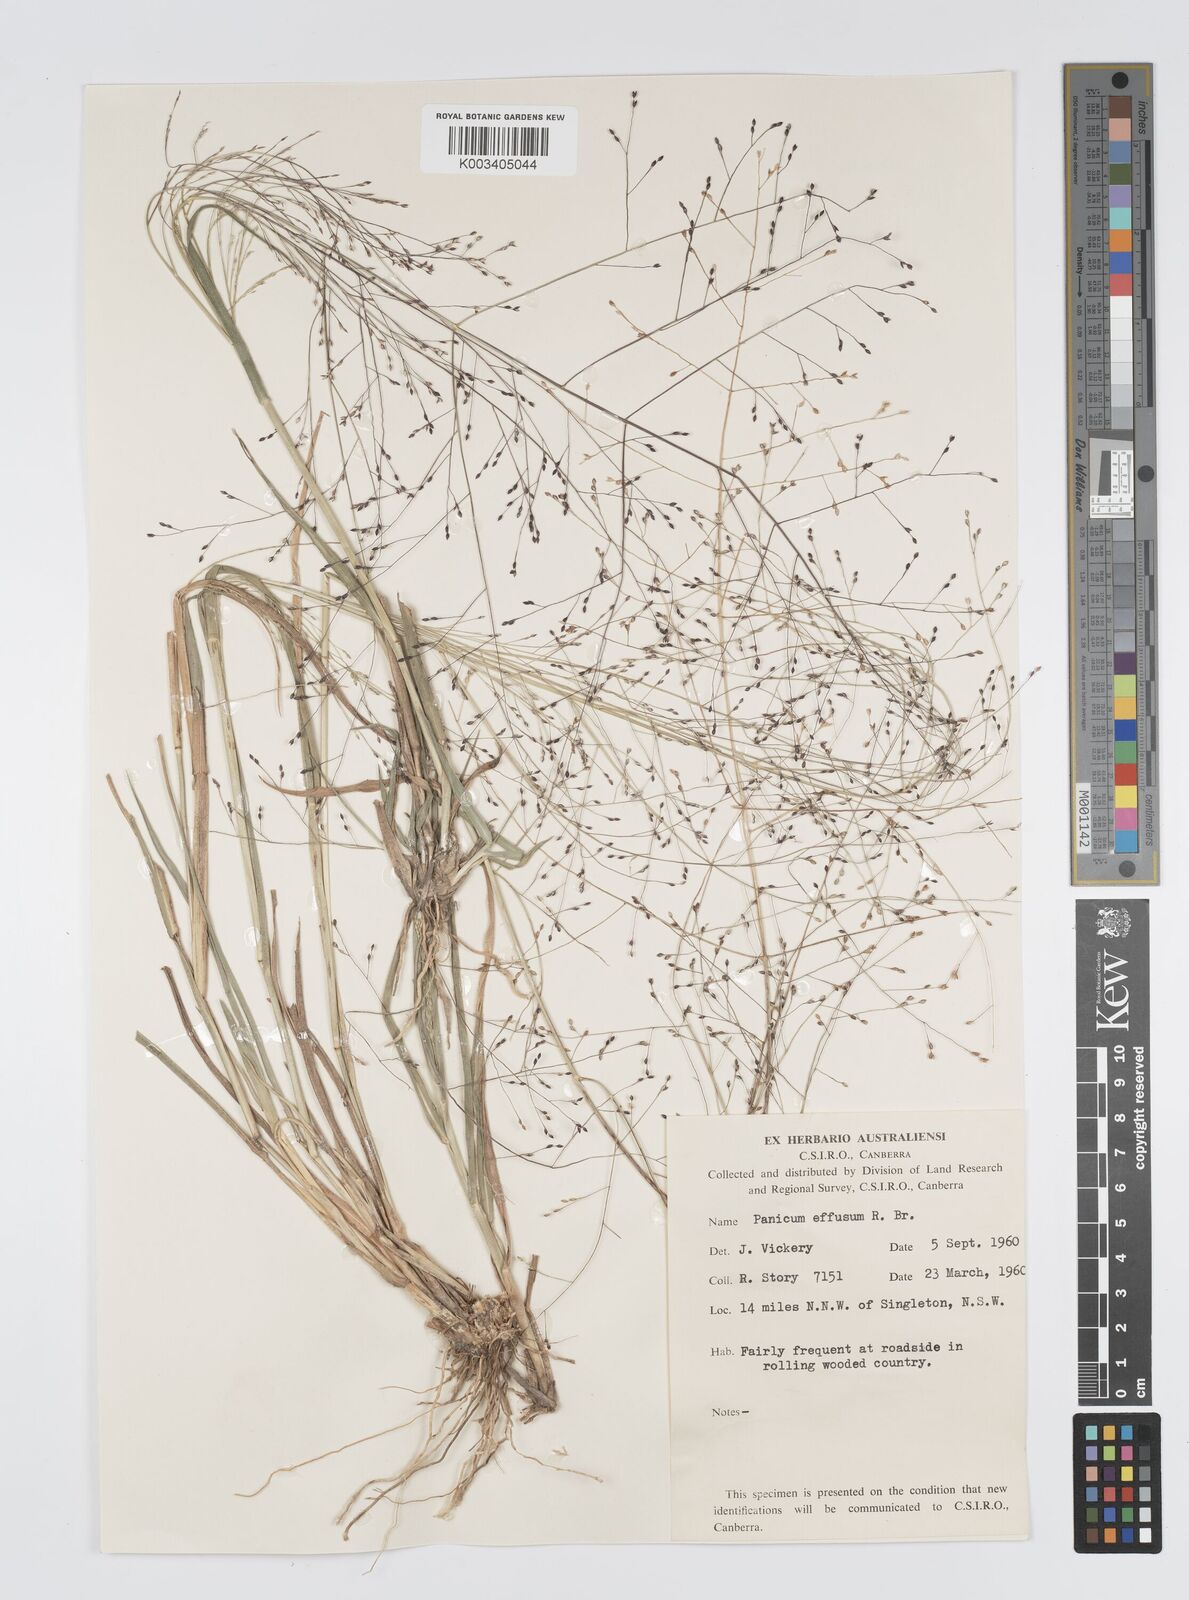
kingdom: Plantae
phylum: Tracheophyta
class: Liliopsida
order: Poales
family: Poaceae
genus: Panicum
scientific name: Panicum effusum
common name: Hairy panic grass
